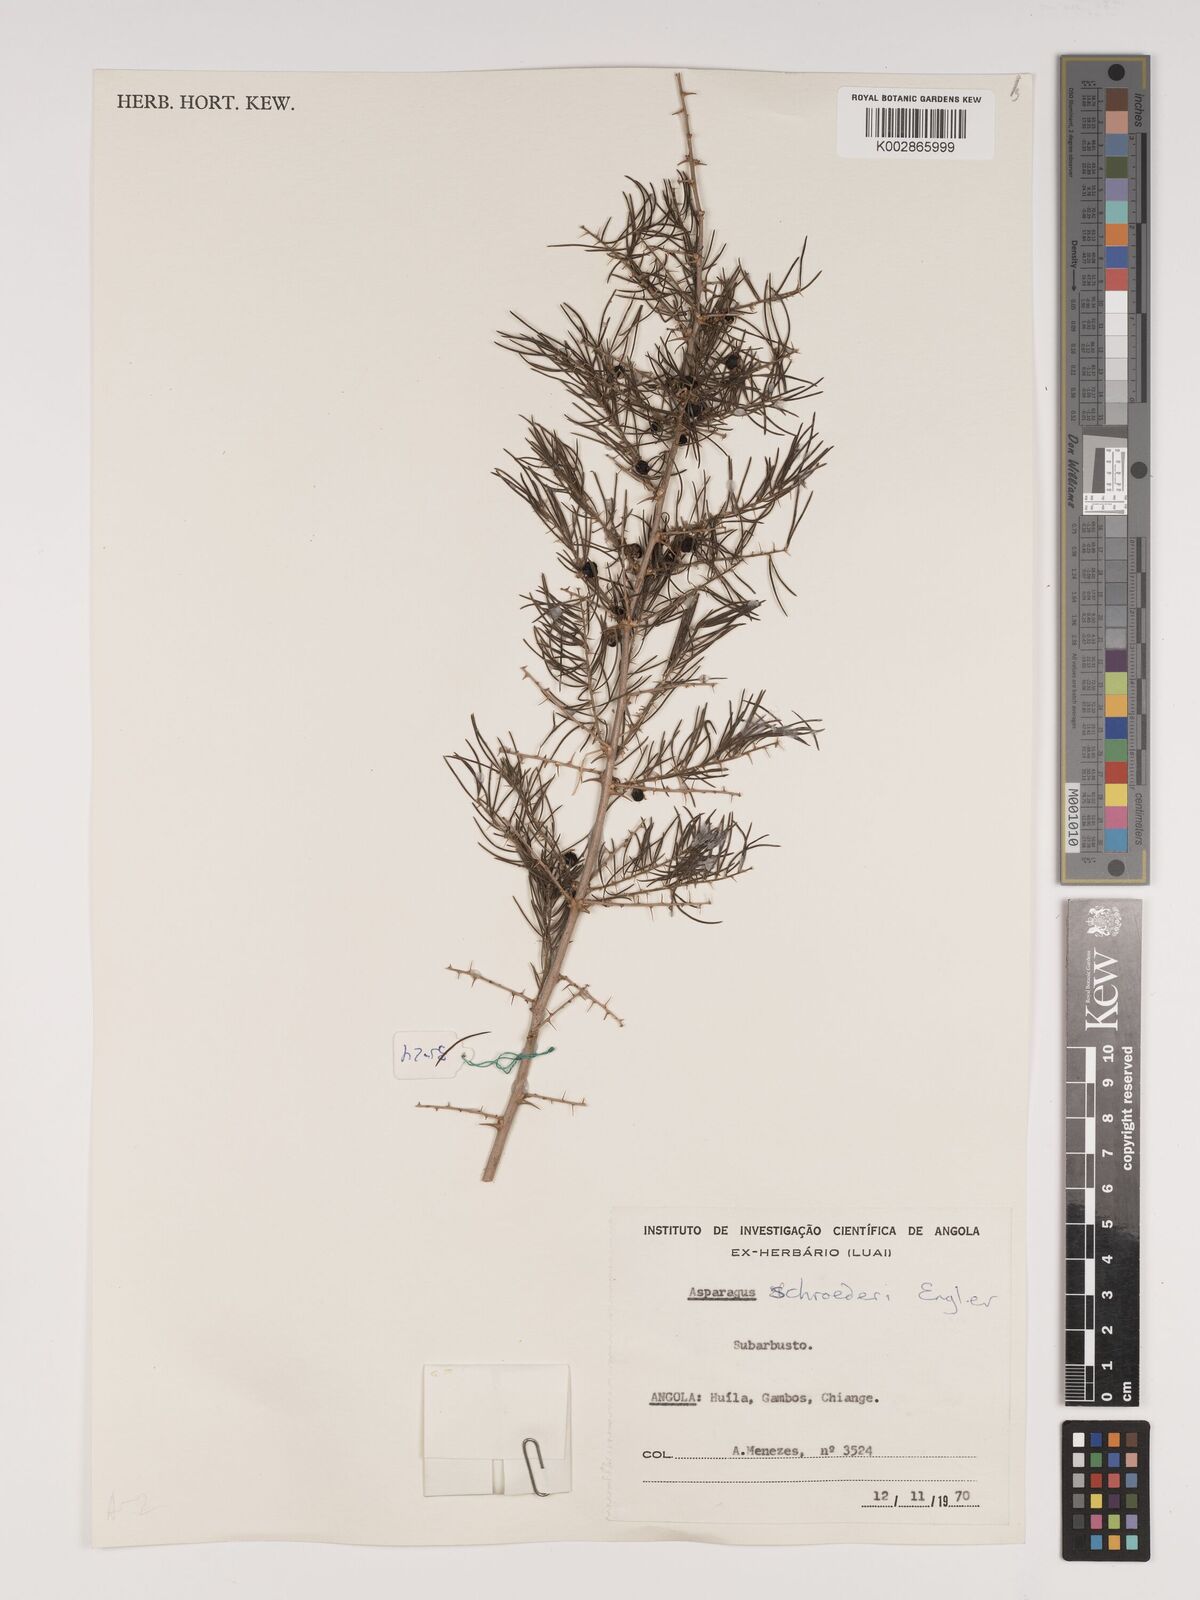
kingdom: Plantae
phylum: Tracheophyta
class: Liliopsida
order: Asparagales
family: Asparagaceae
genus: Asparagus
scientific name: Asparagus schroederi
